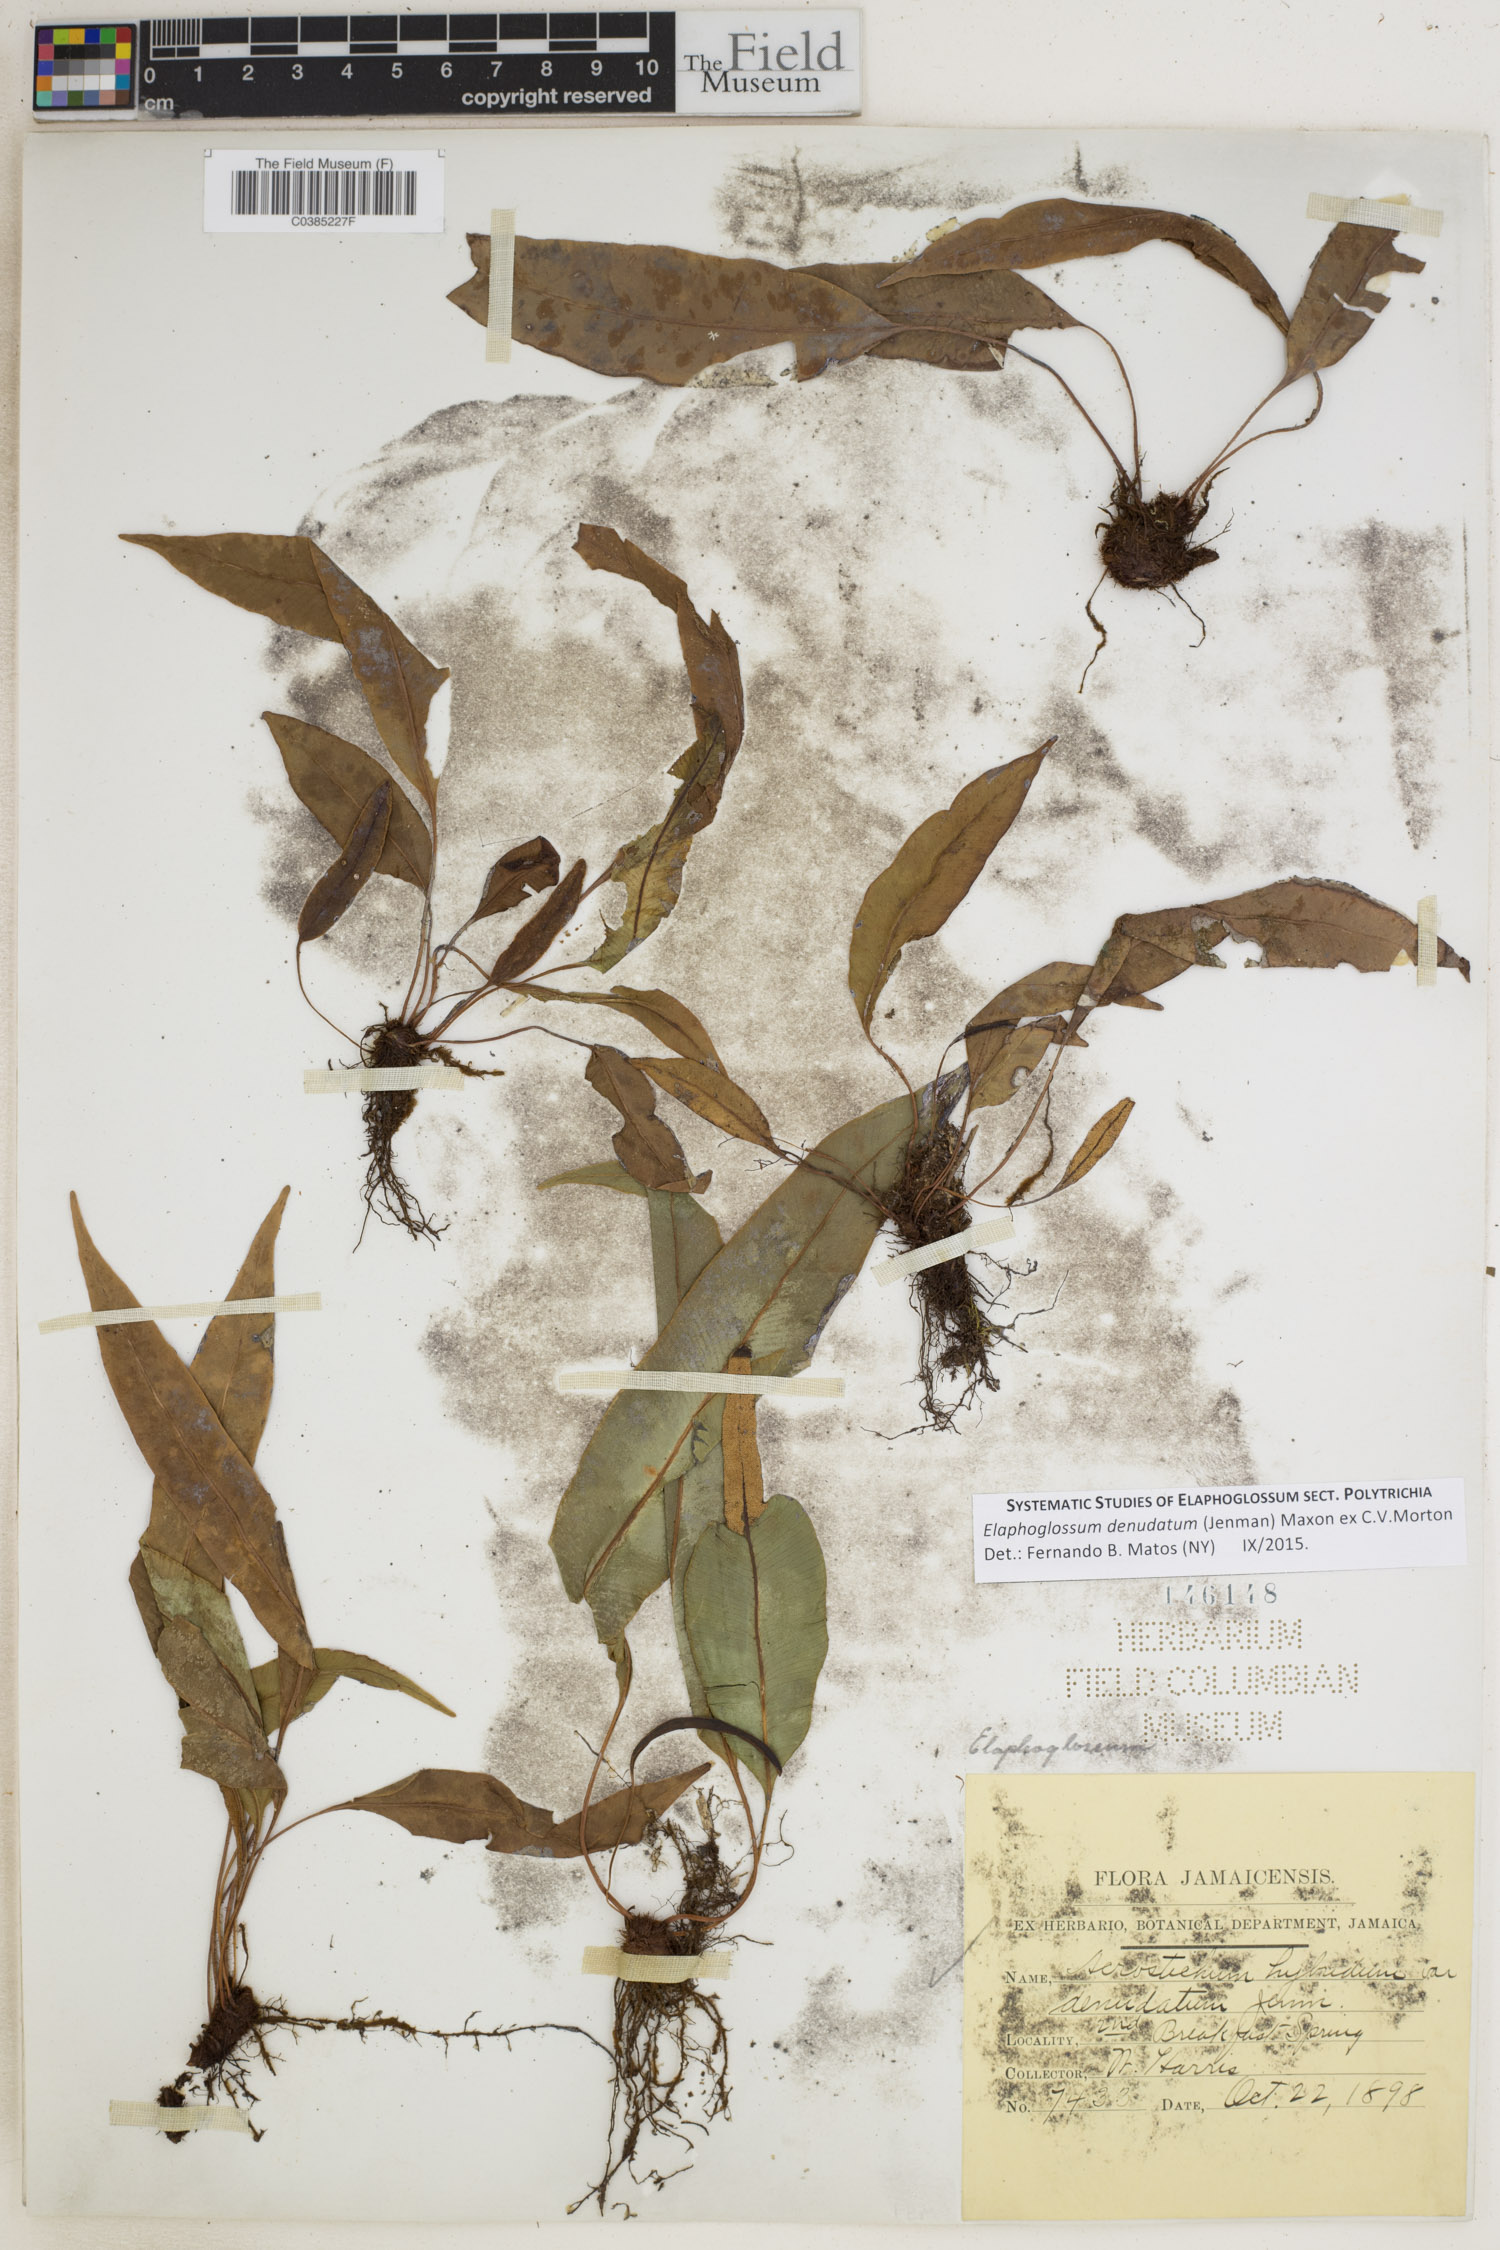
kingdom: Plantae
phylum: Tracheophyta
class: Polypodiopsida
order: Polypodiales
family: Dryopteridaceae
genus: Elaphoglossum
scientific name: Elaphoglossum denudatum
